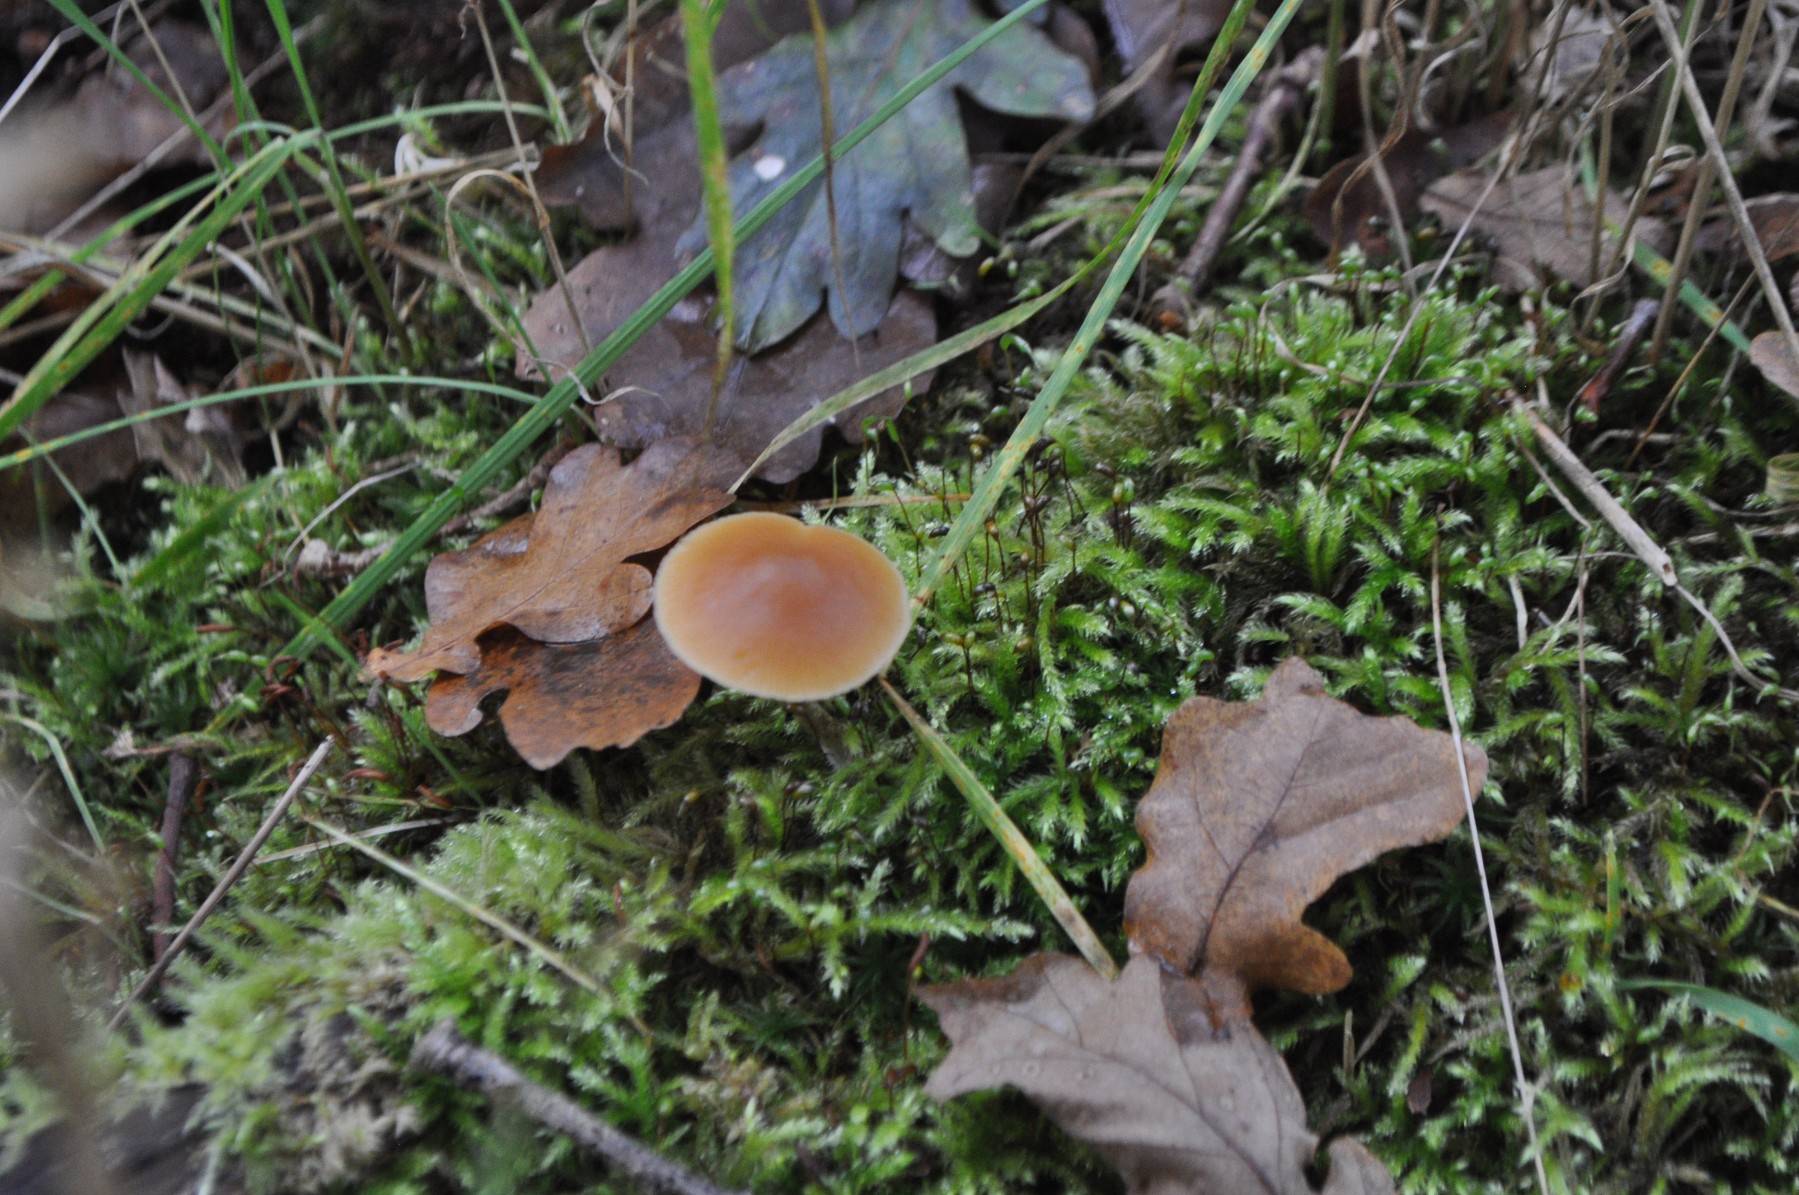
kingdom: Fungi
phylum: Basidiomycota
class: Agaricomycetes
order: Agaricales
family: Hymenogastraceae
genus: Galerina
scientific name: Galerina marginata
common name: randbæltet hjelmhat
